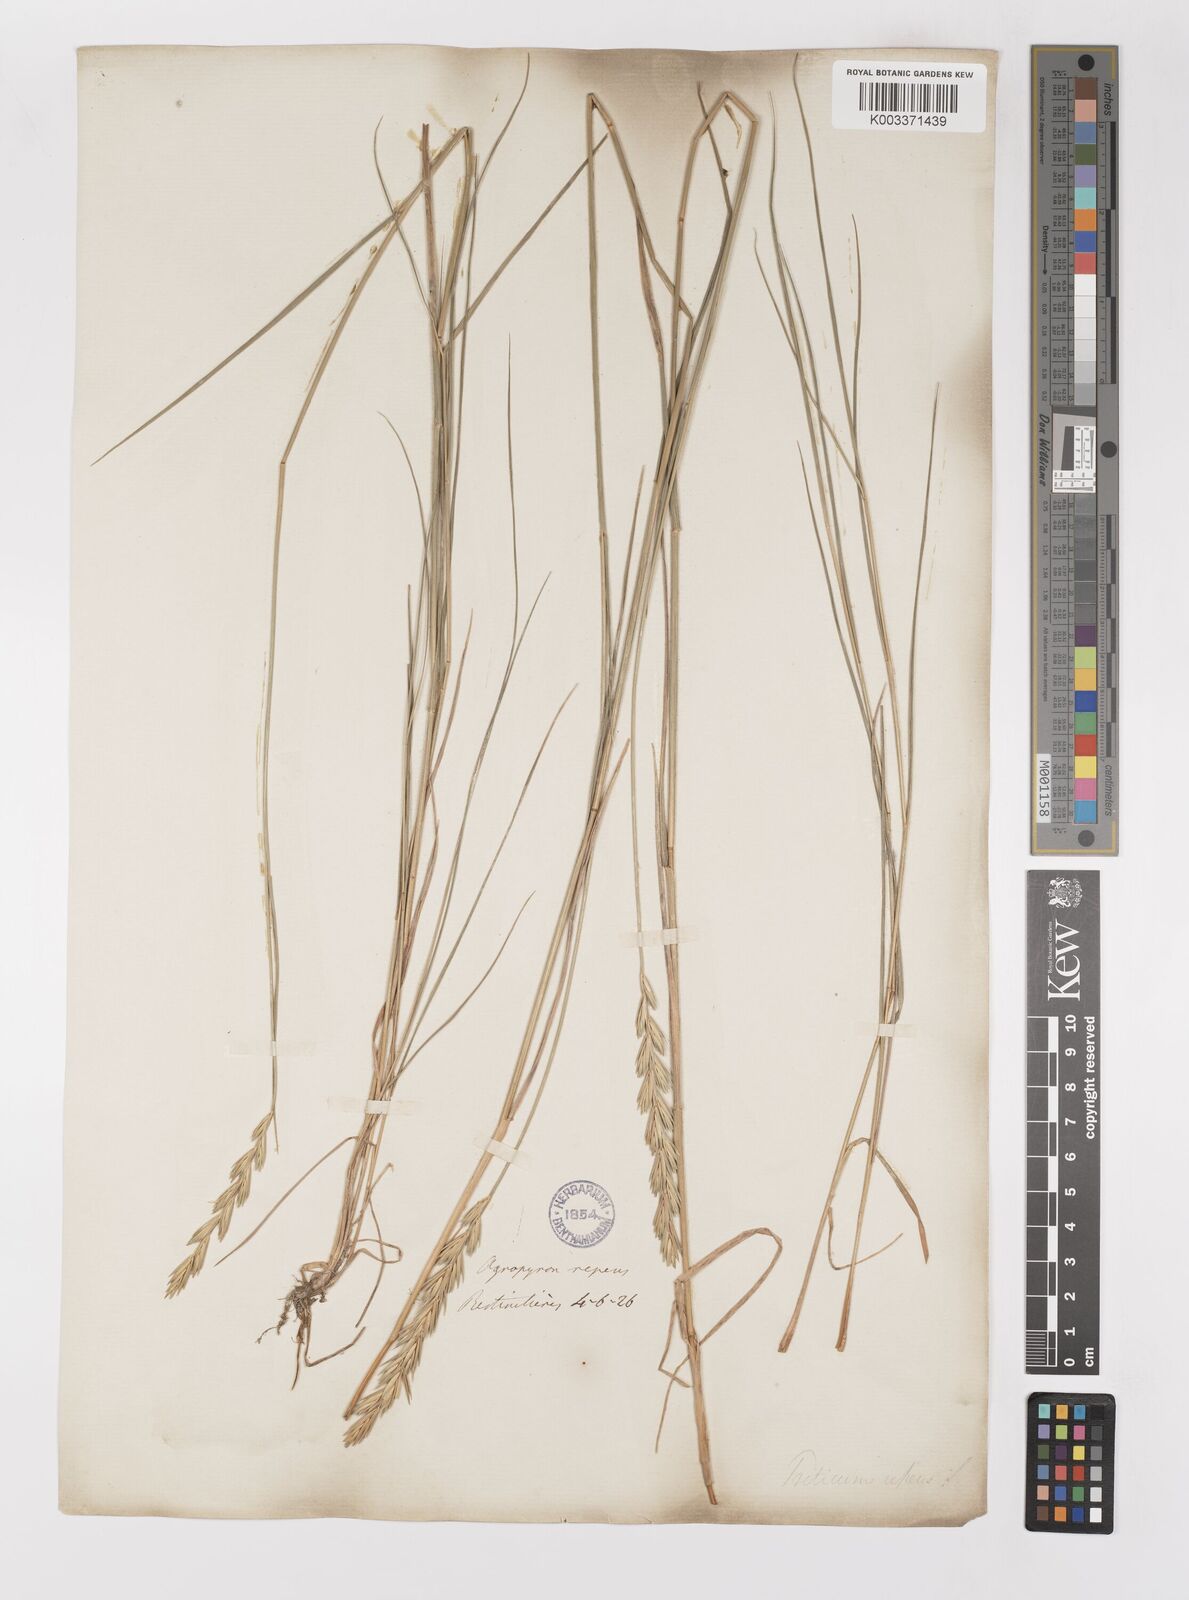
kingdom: Plantae
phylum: Tracheophyta
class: Liliopsida
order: Poales
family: Poaceae
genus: Elymus
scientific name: Elymus repens
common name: Quackgrass
